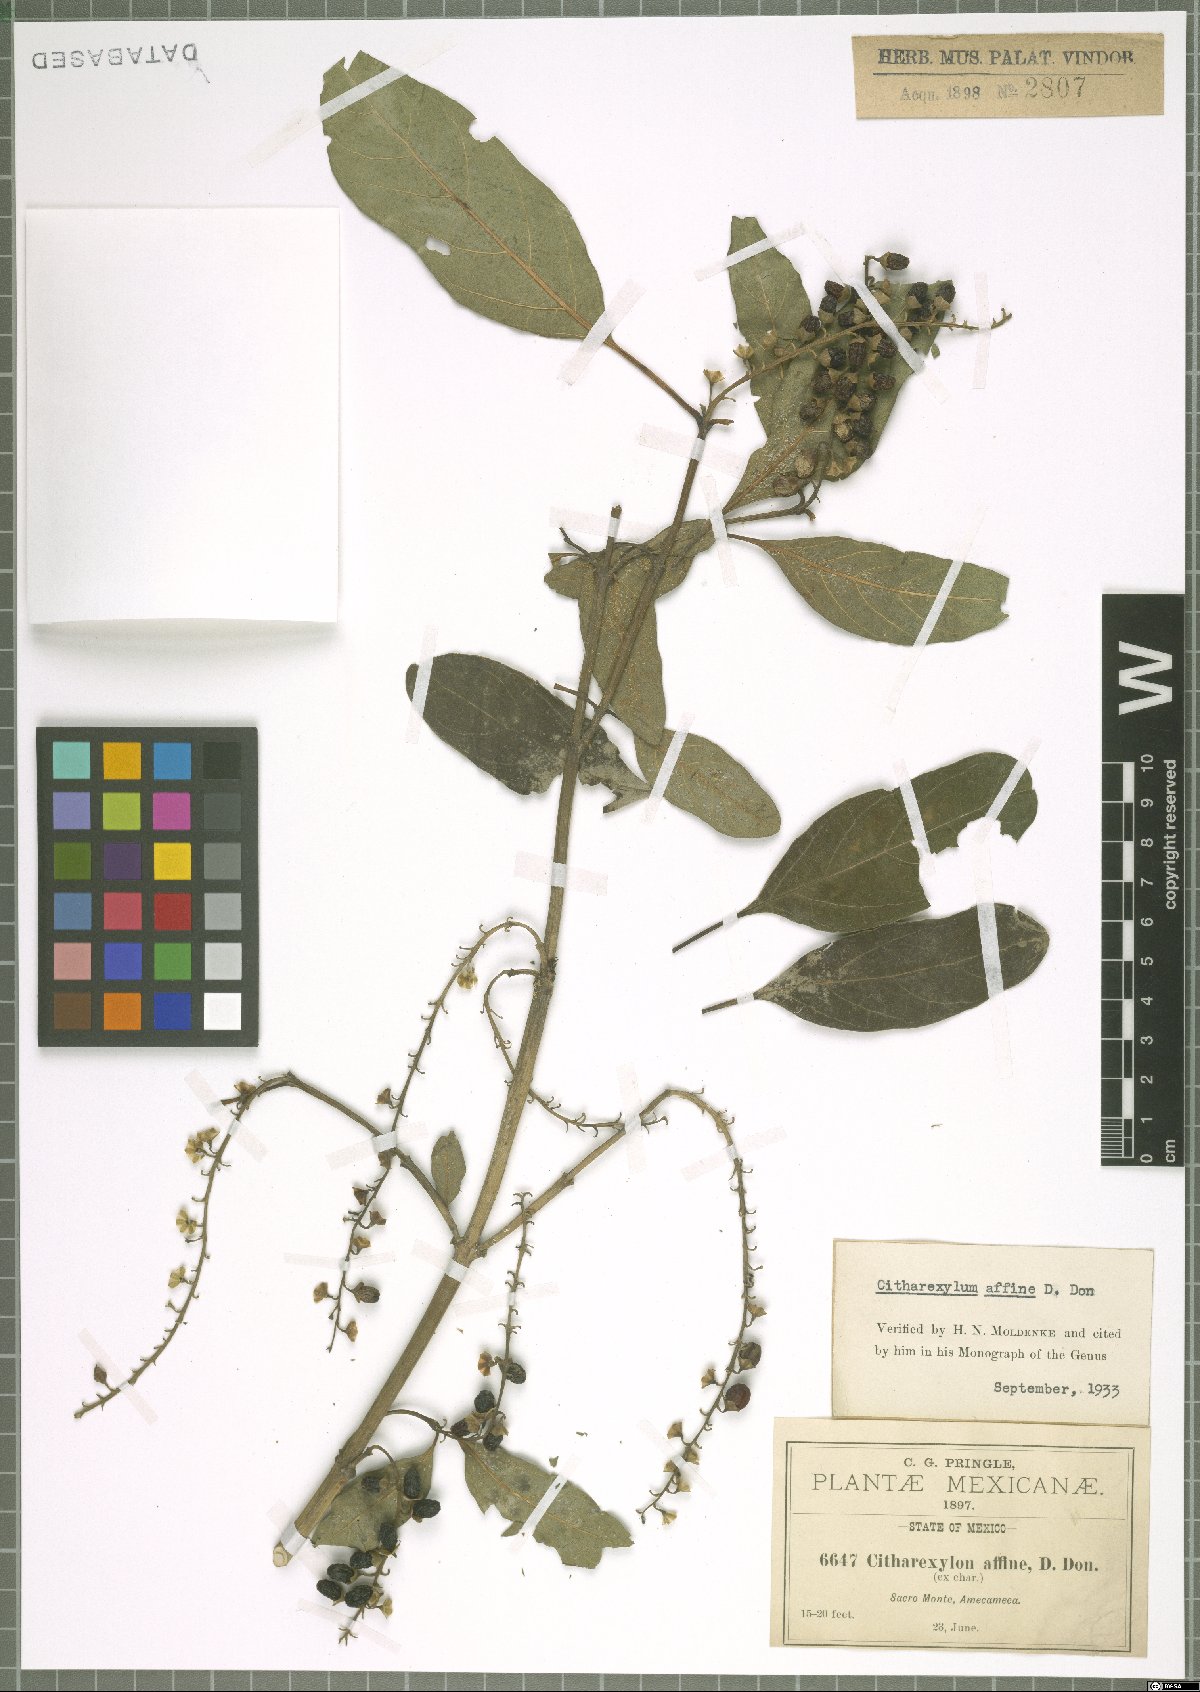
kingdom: Plantae
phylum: Tracheophyta
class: Magnoliopsida
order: Lamiales
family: Verbenaceae
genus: Citharexylum
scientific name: Citharexylum affine
